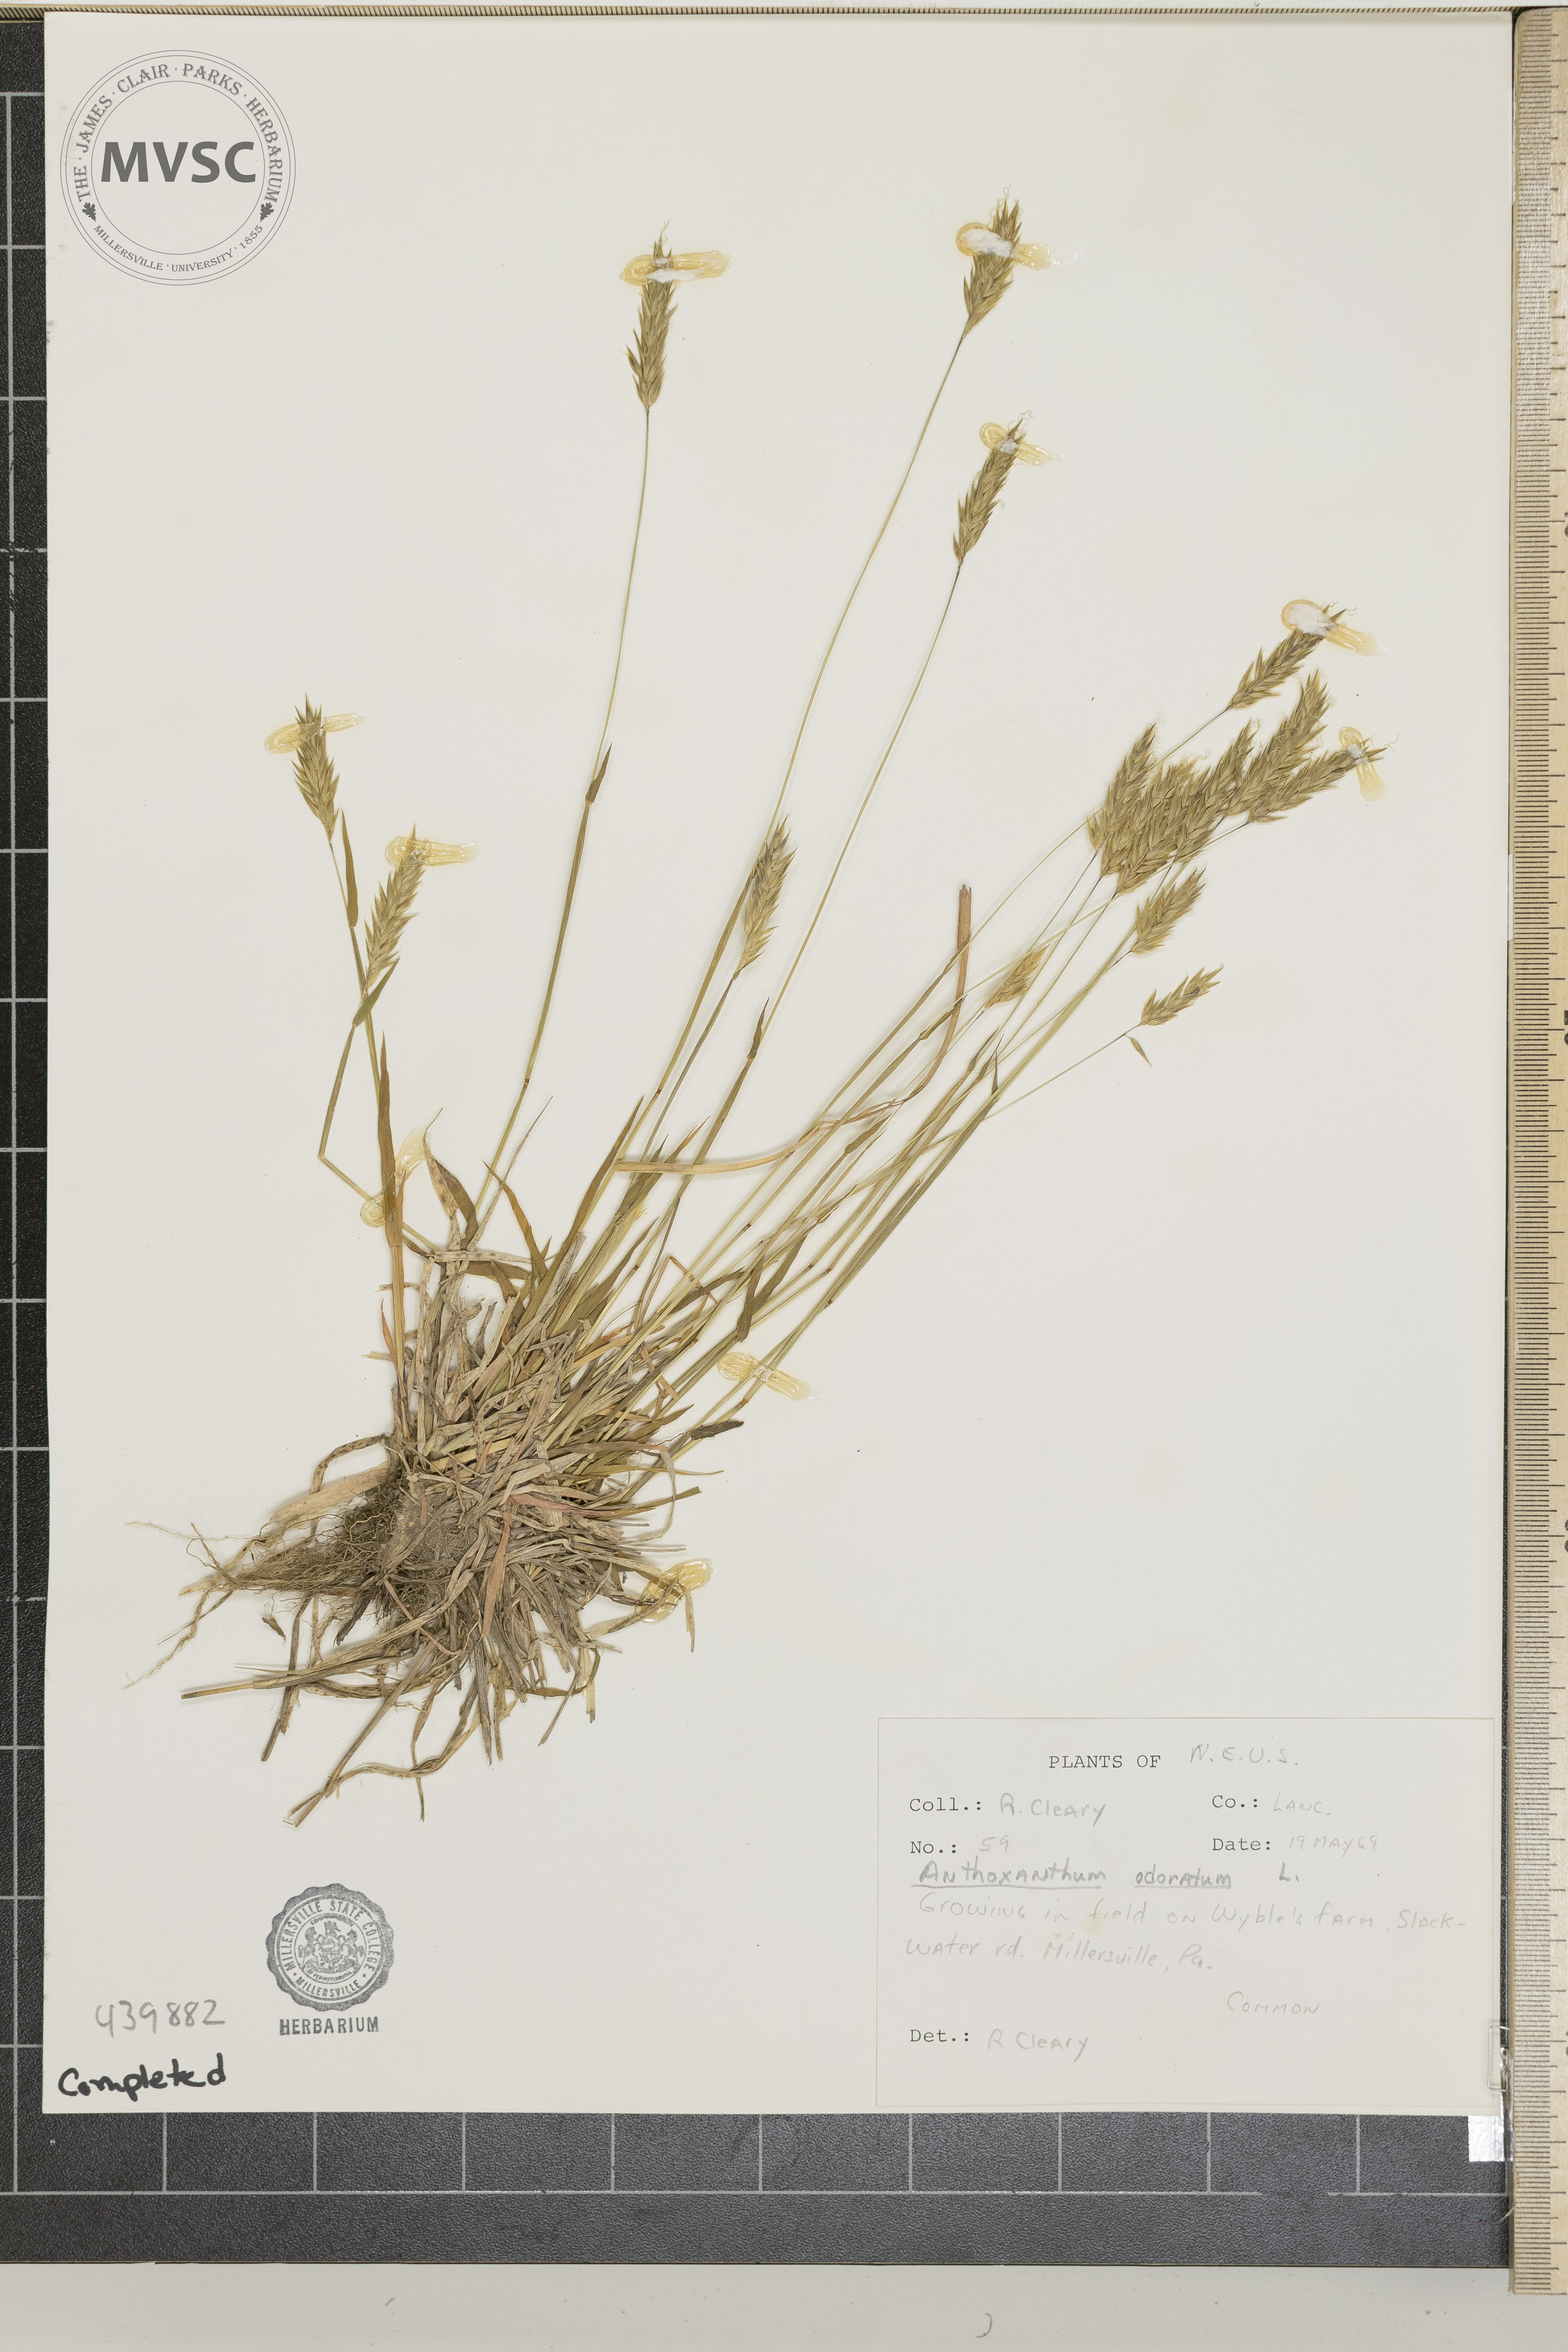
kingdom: Plantae
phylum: Tracheophyta
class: Liliopsida
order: Poales
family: Poaceae
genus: Anthoxanthum
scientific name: Anthoxanthum odoratum
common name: Sweet vernalgrass
